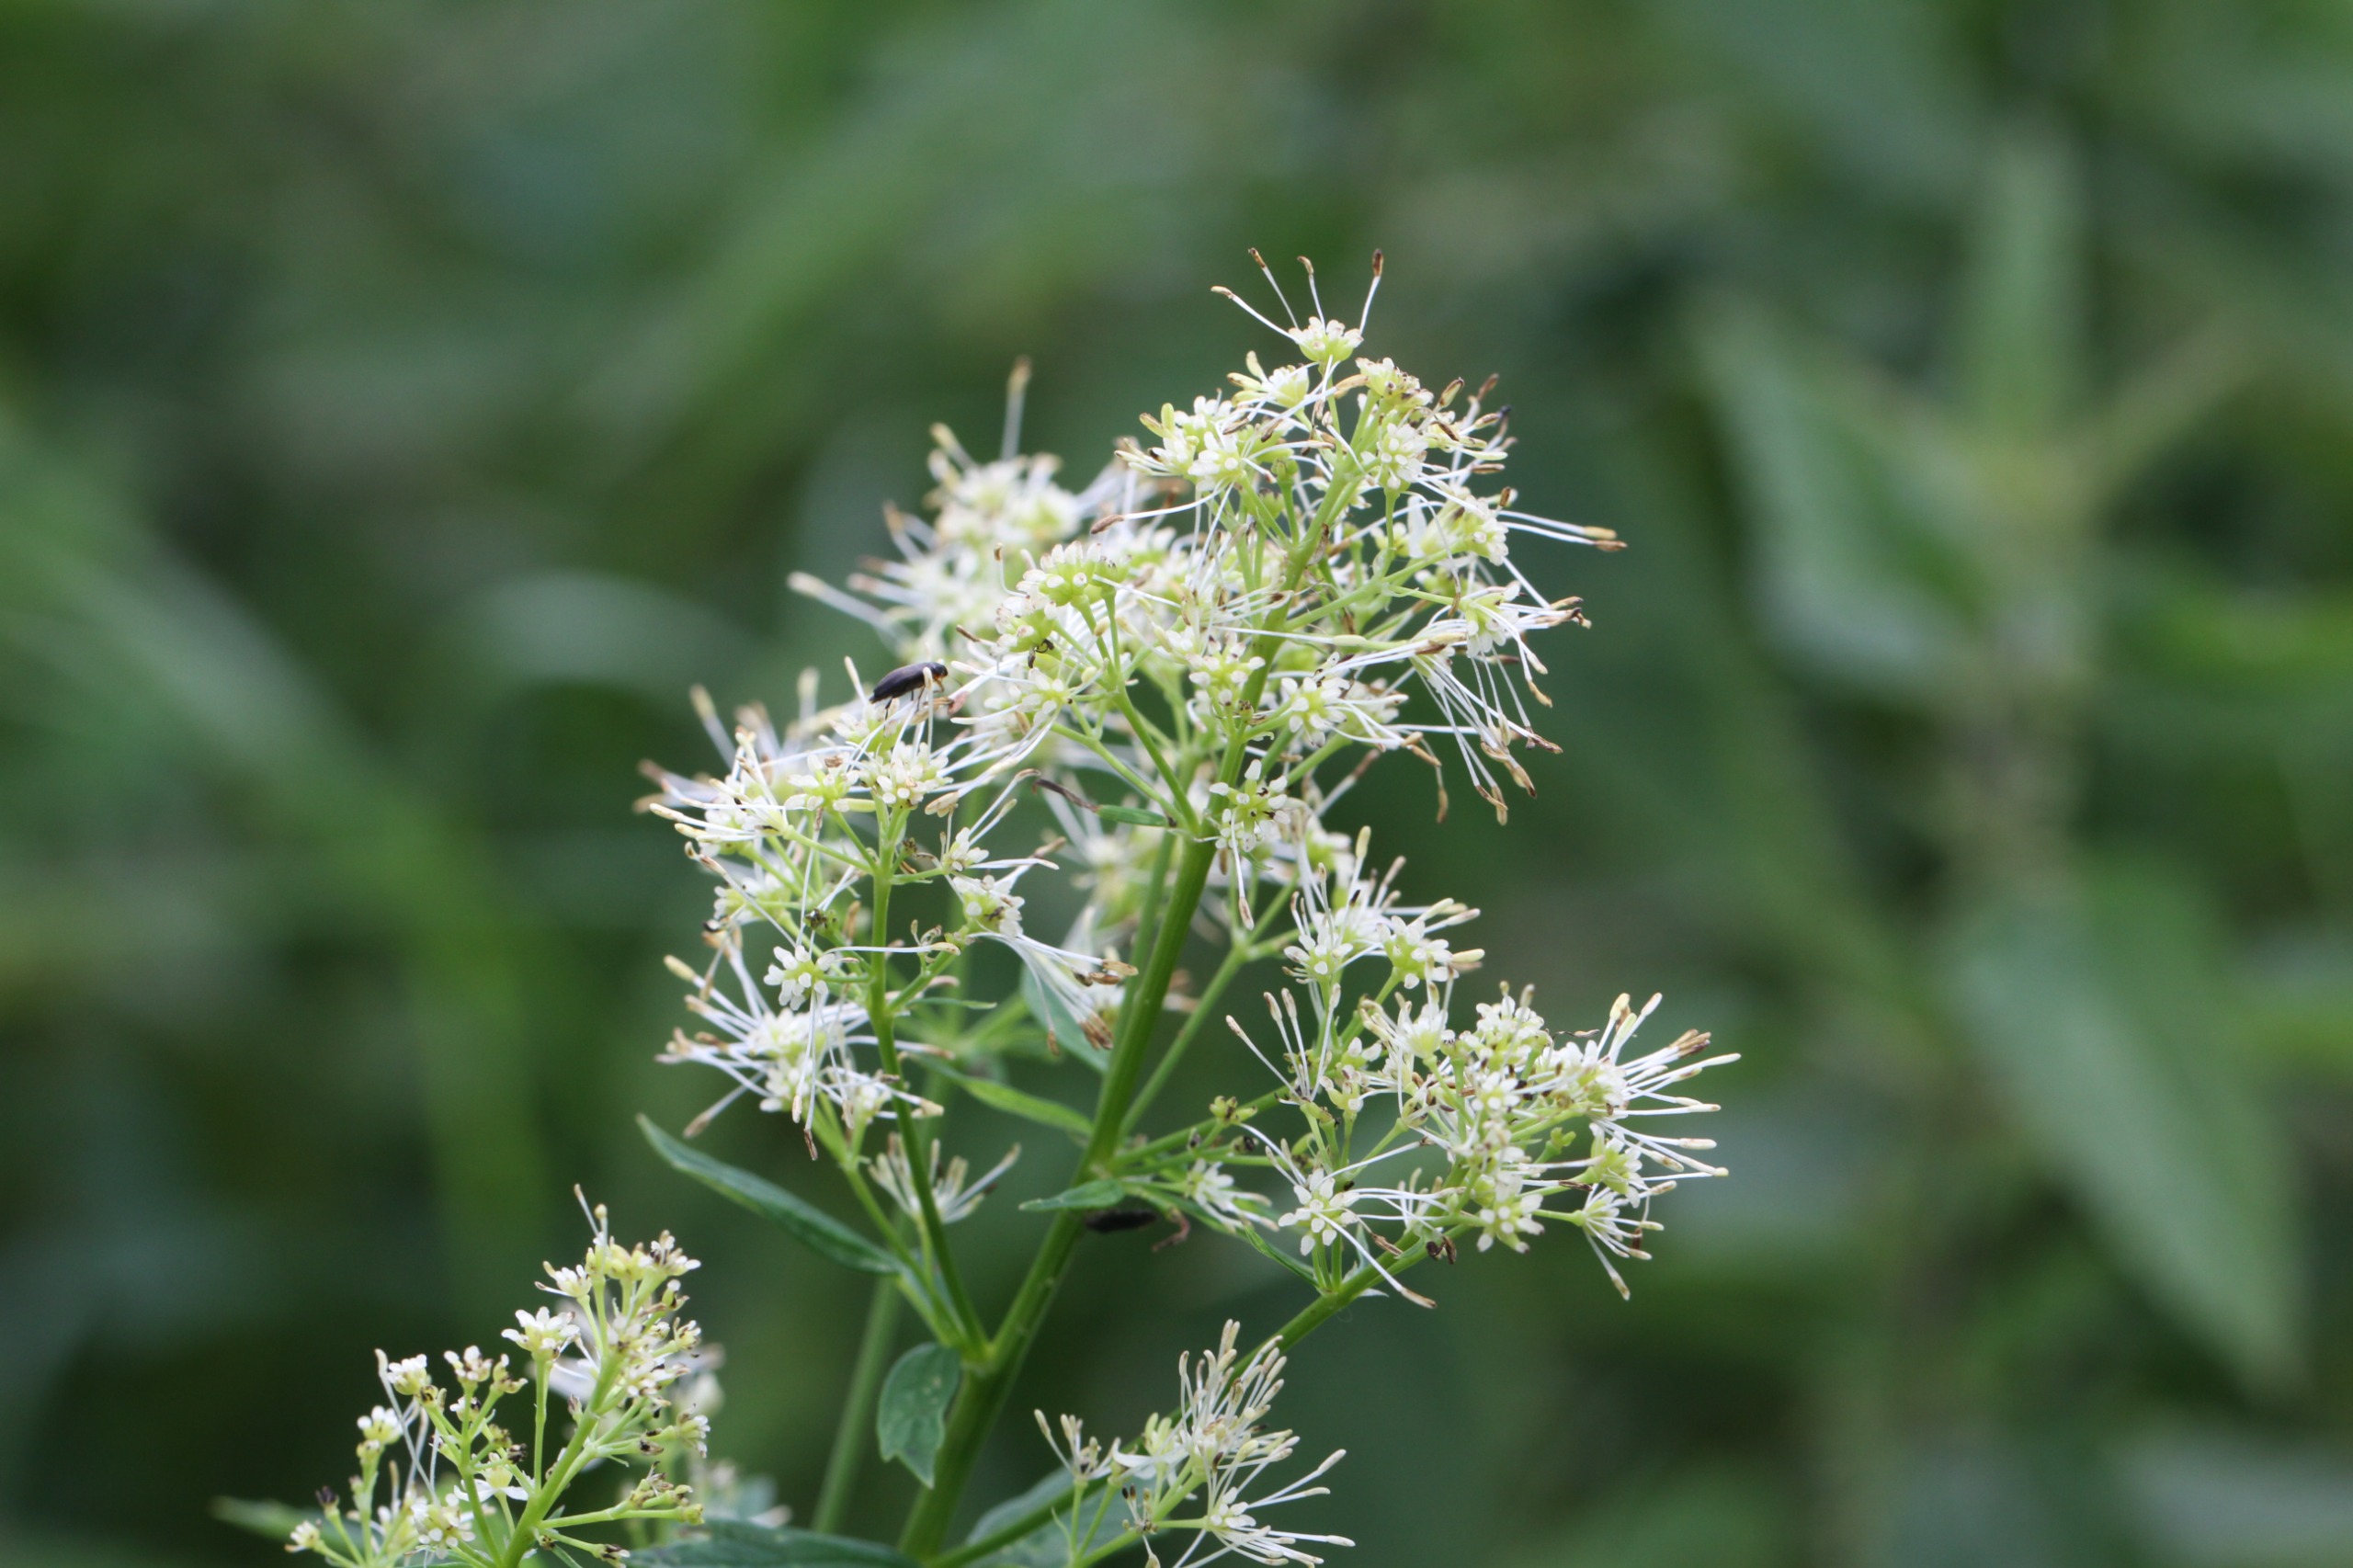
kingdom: Plantae
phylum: Tracheophyta
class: Magnoliopsida
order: Ranunculales
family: Ranunculaceae
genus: Thalictrum
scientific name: Thalictrum flavum
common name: Gul frøstjerne
